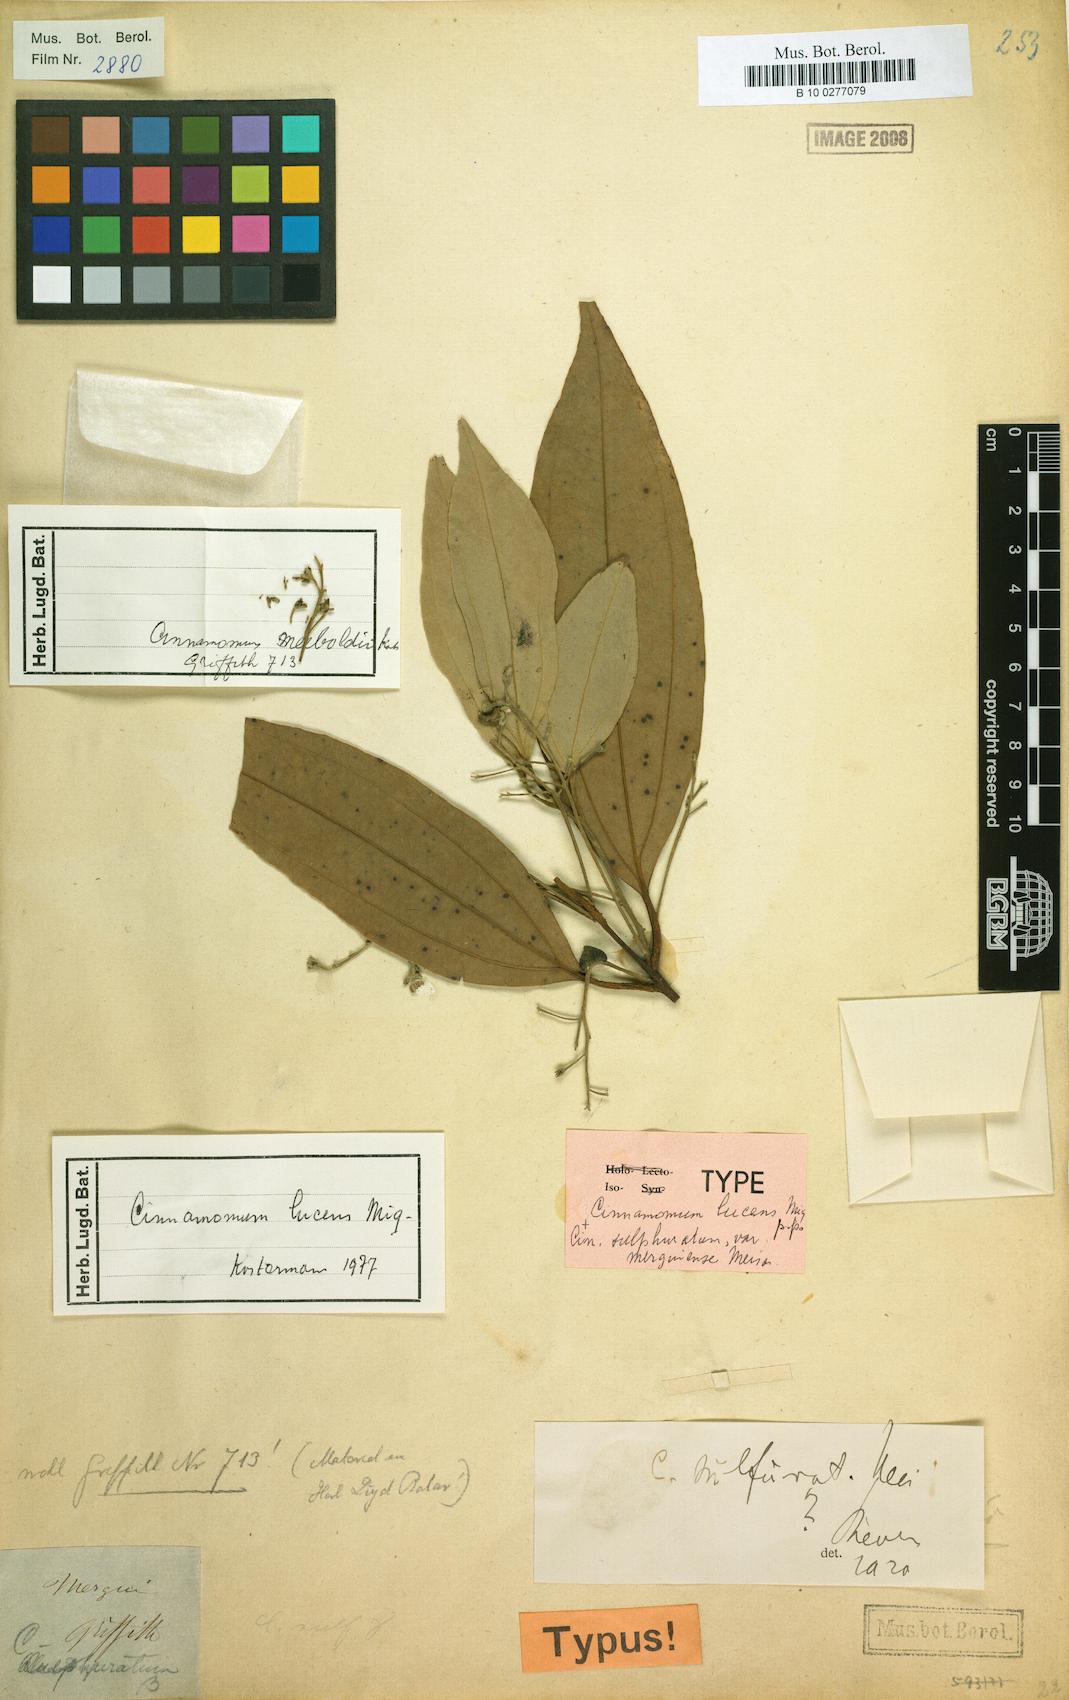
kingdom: Plantae
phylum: Tracheophyta
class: Magnoliopsida
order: Laurales
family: Lauraceae
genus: Cinnamomum
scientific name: Cinnamomum lucens
